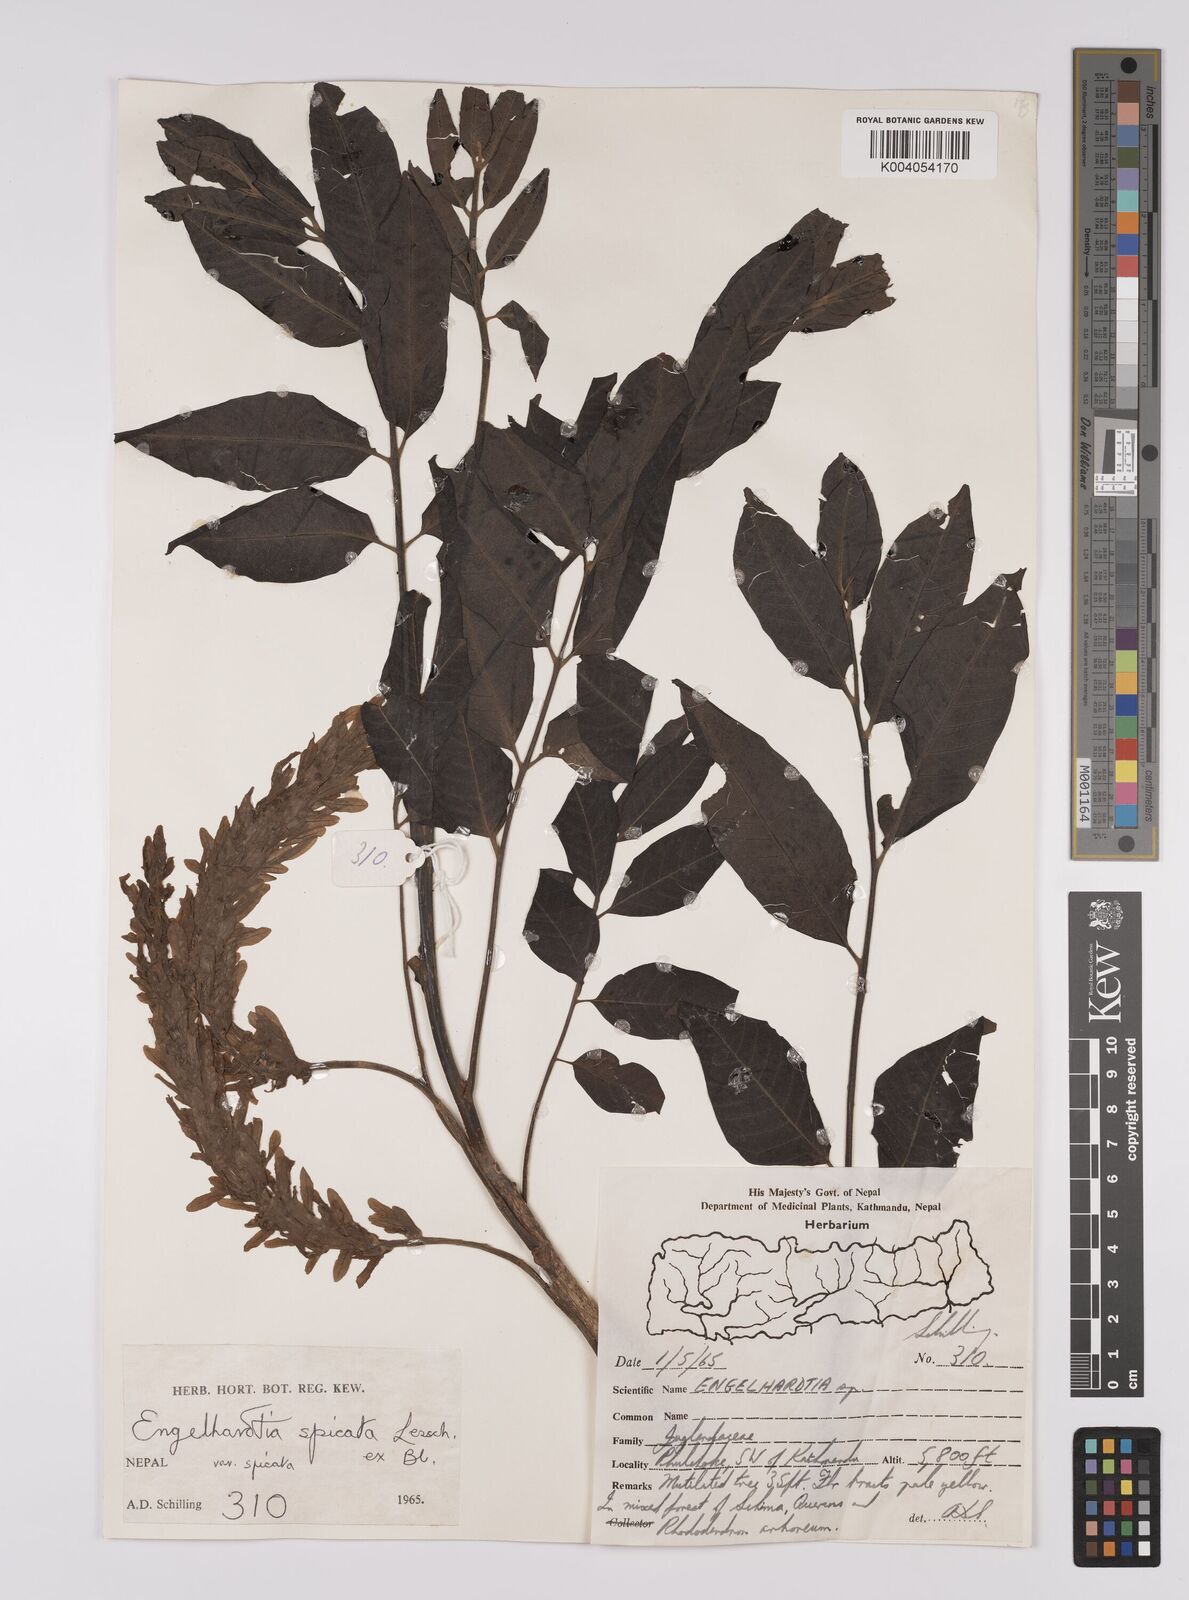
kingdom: Plantae
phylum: Tracheophyta
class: Magnoliopsida
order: Fagales
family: Juglandaceae
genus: Engelhardia
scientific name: Engelhardia spicata
